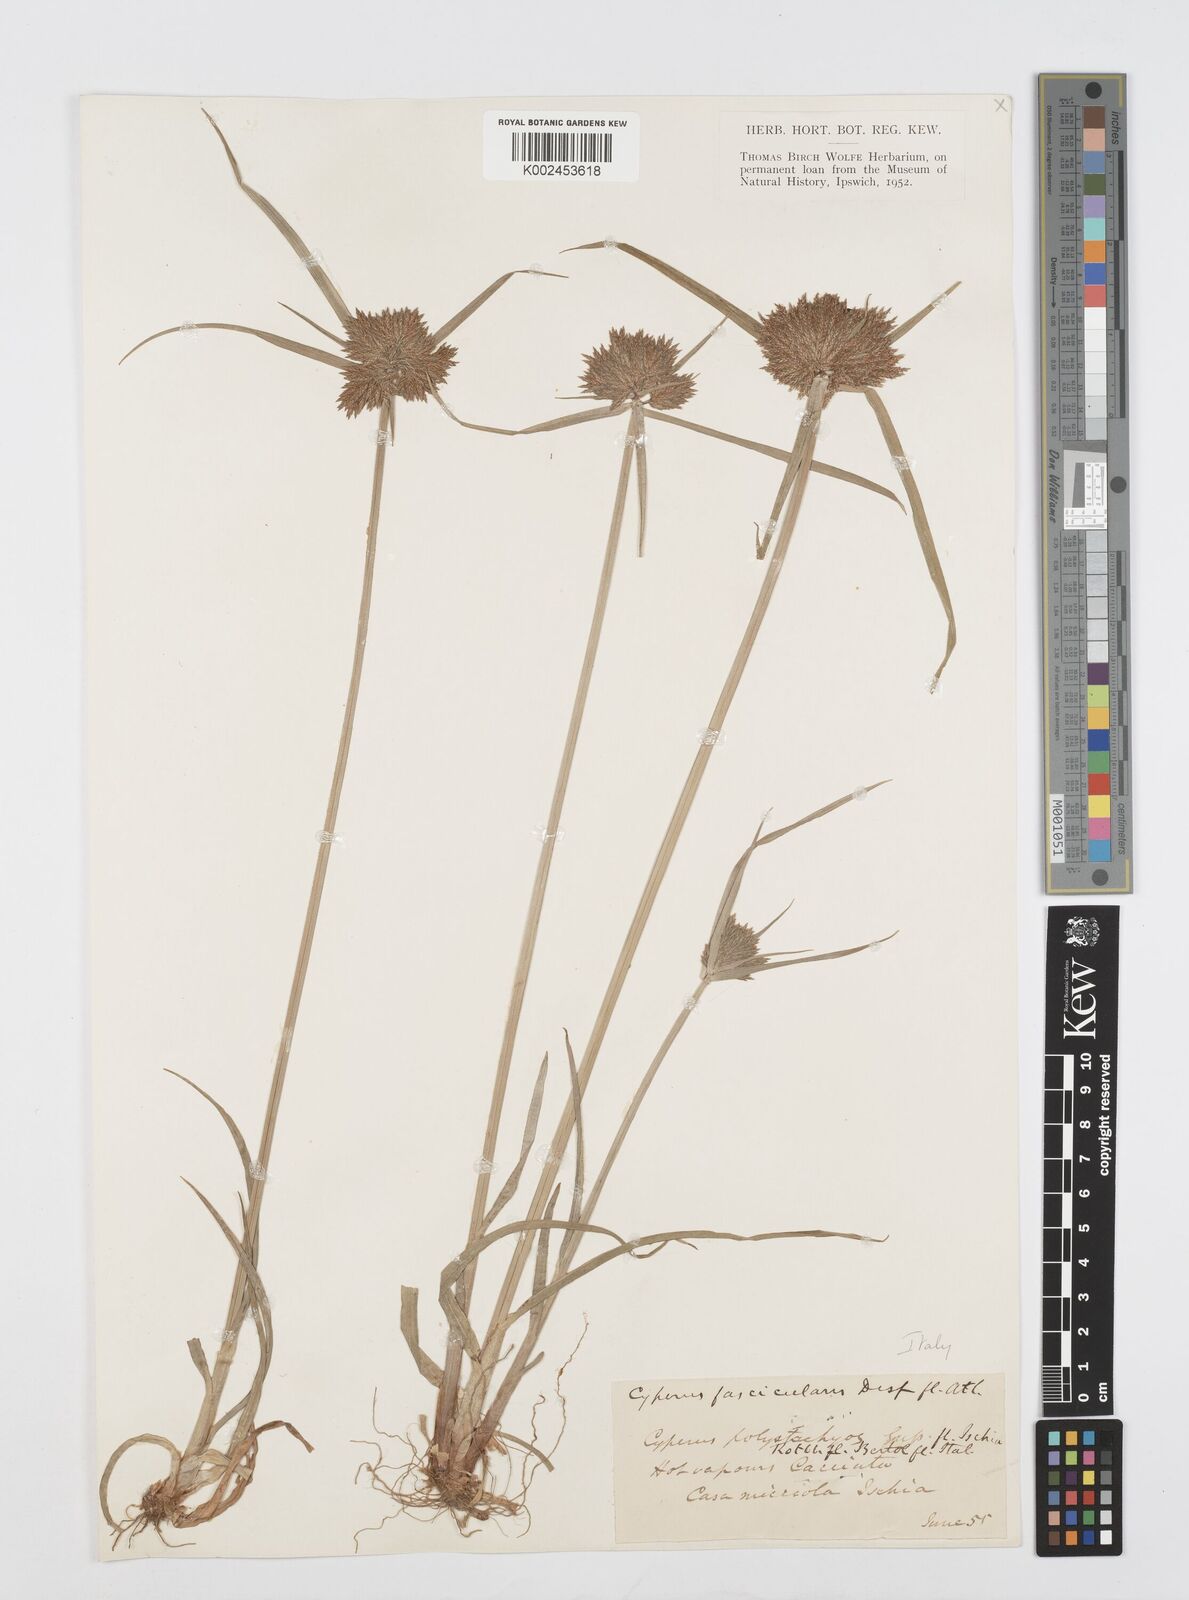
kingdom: Plantae
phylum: Tracheophyta
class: Liliopsida
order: Poales
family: Cyperaceae
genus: Cyperus
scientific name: Cyperus polystachyos
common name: Bunchy flat sedge
